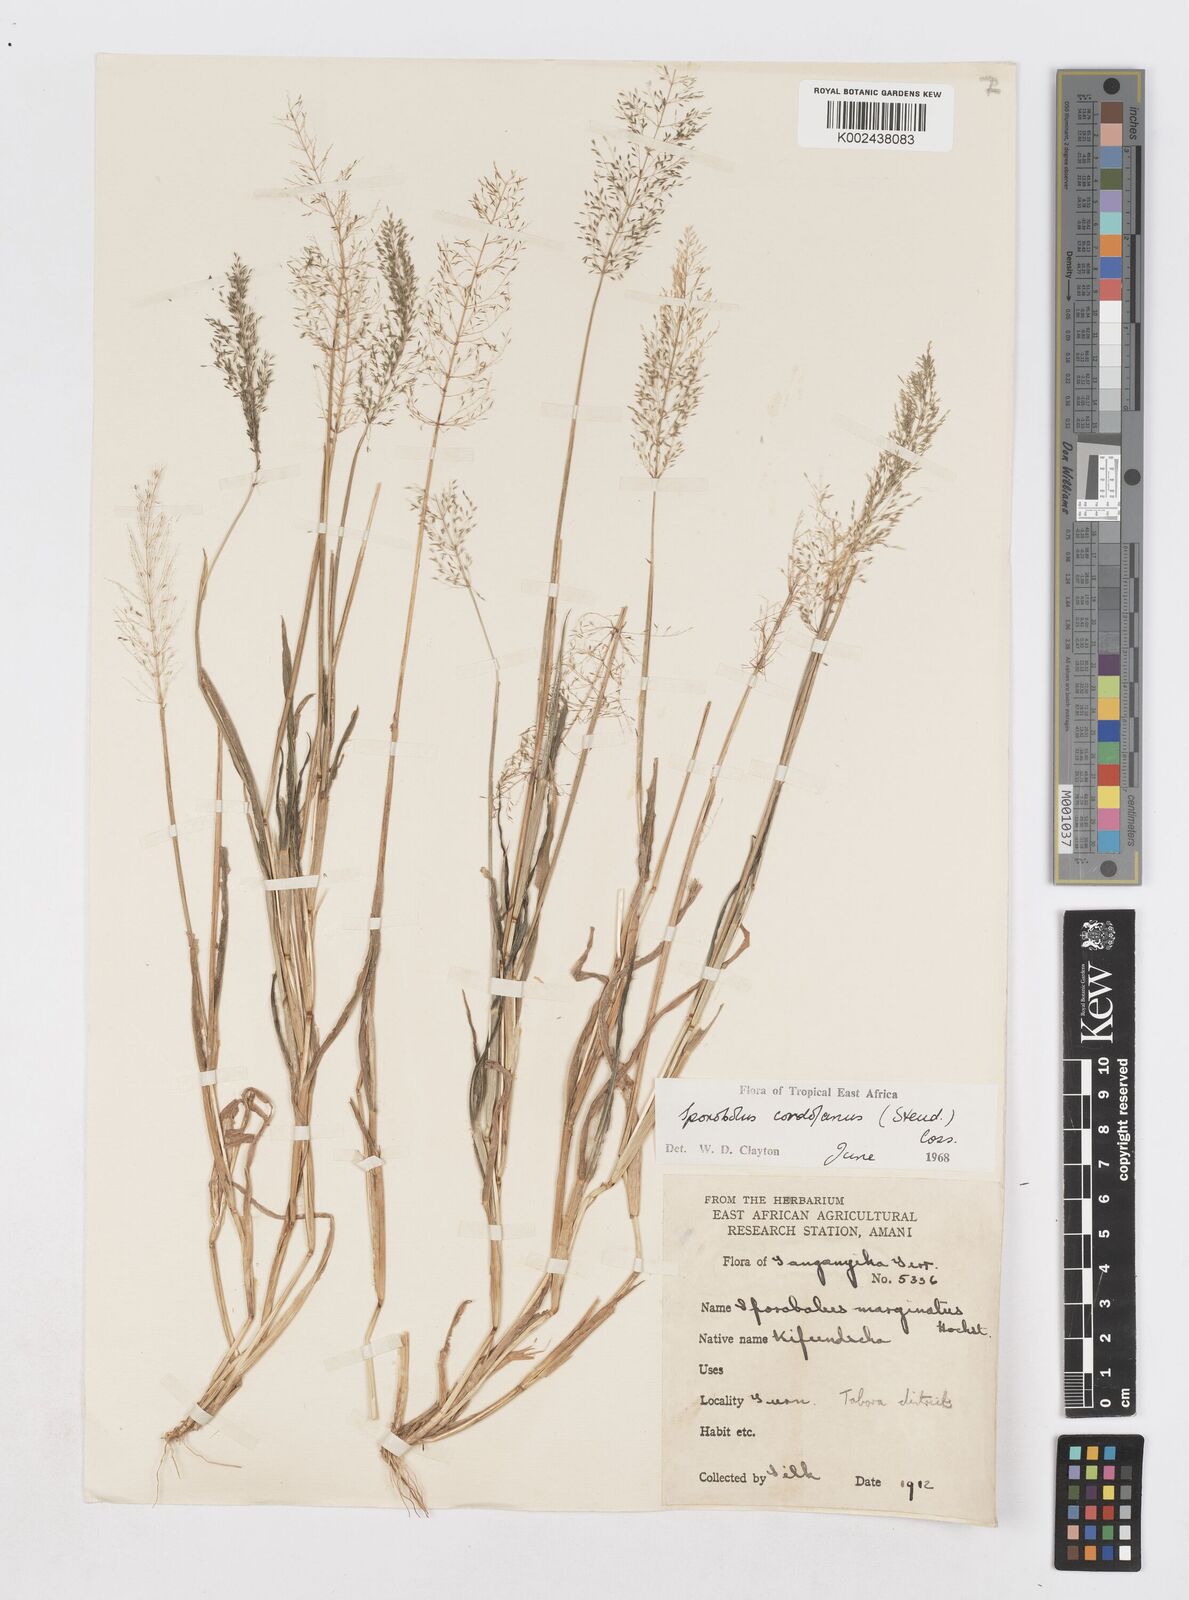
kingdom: Plantae
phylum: Tracheophyta
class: Liliopsida
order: Poales
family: Poaceae
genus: Sporobolus
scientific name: Sporobolus cordofanus
